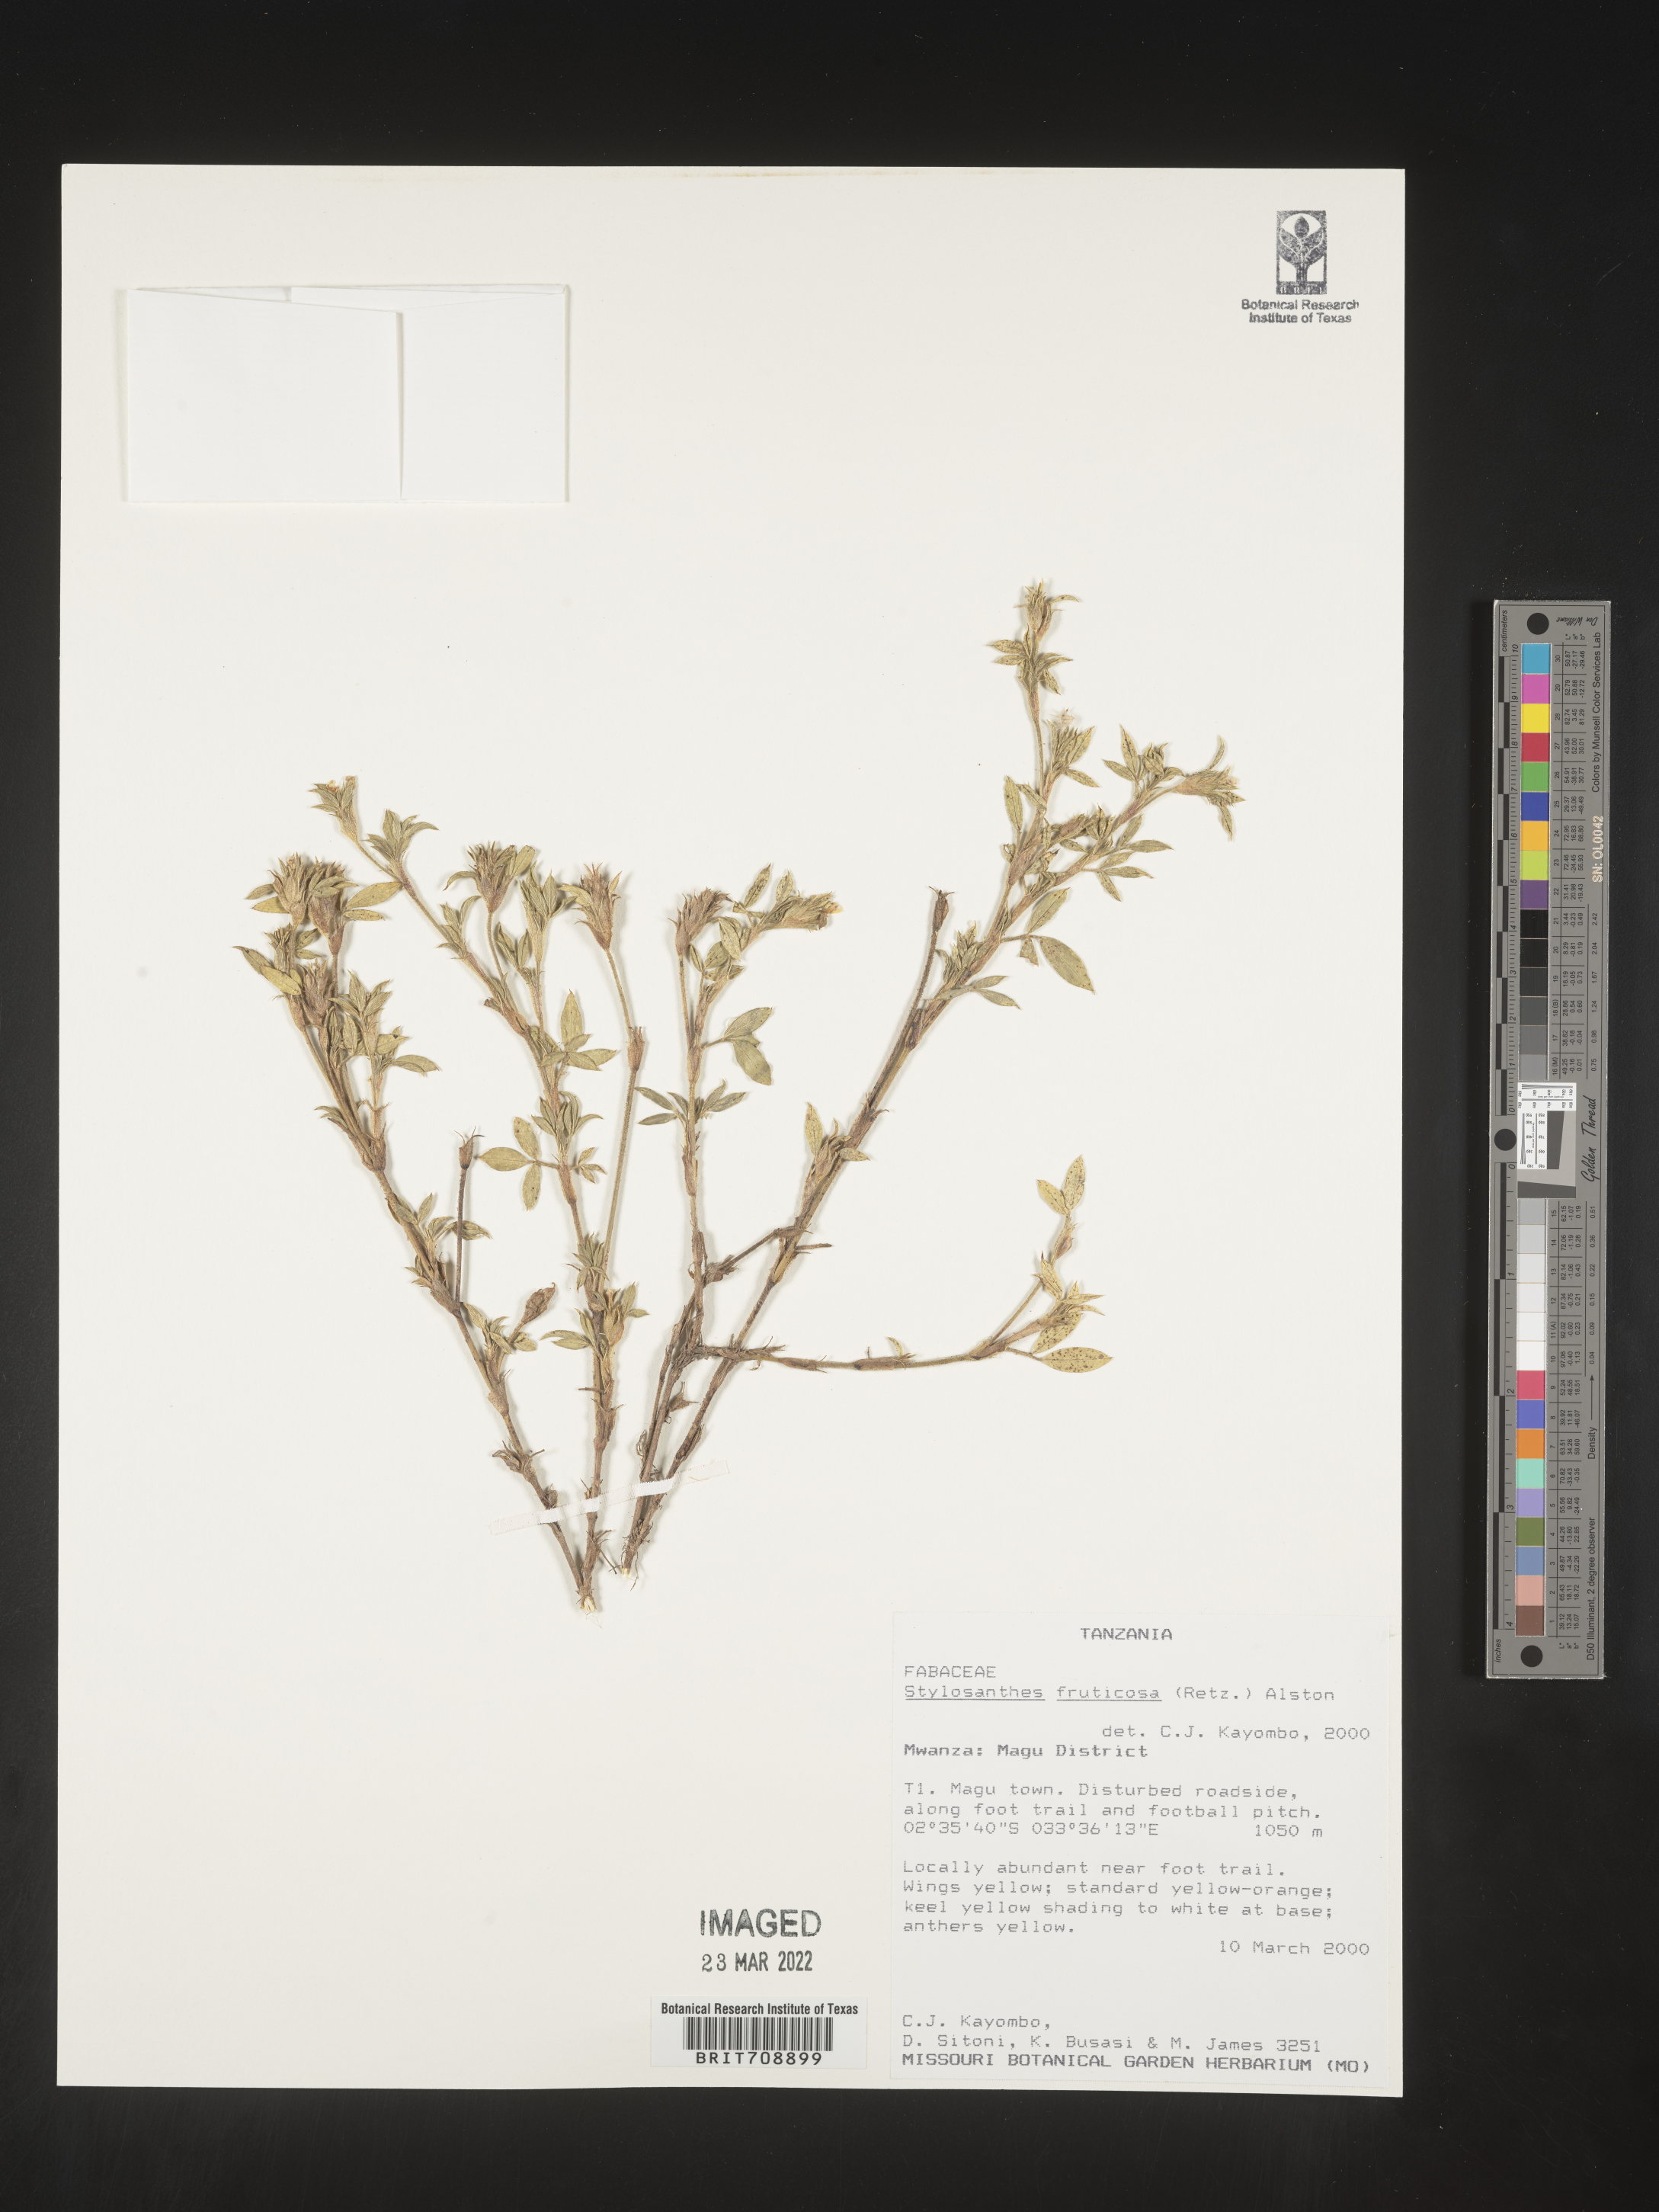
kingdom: Plantae
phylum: Tracheophyta
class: Magnoliopsida
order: Fabales
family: Fabaceae
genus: Stylosanthes
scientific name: Stylosanthes
